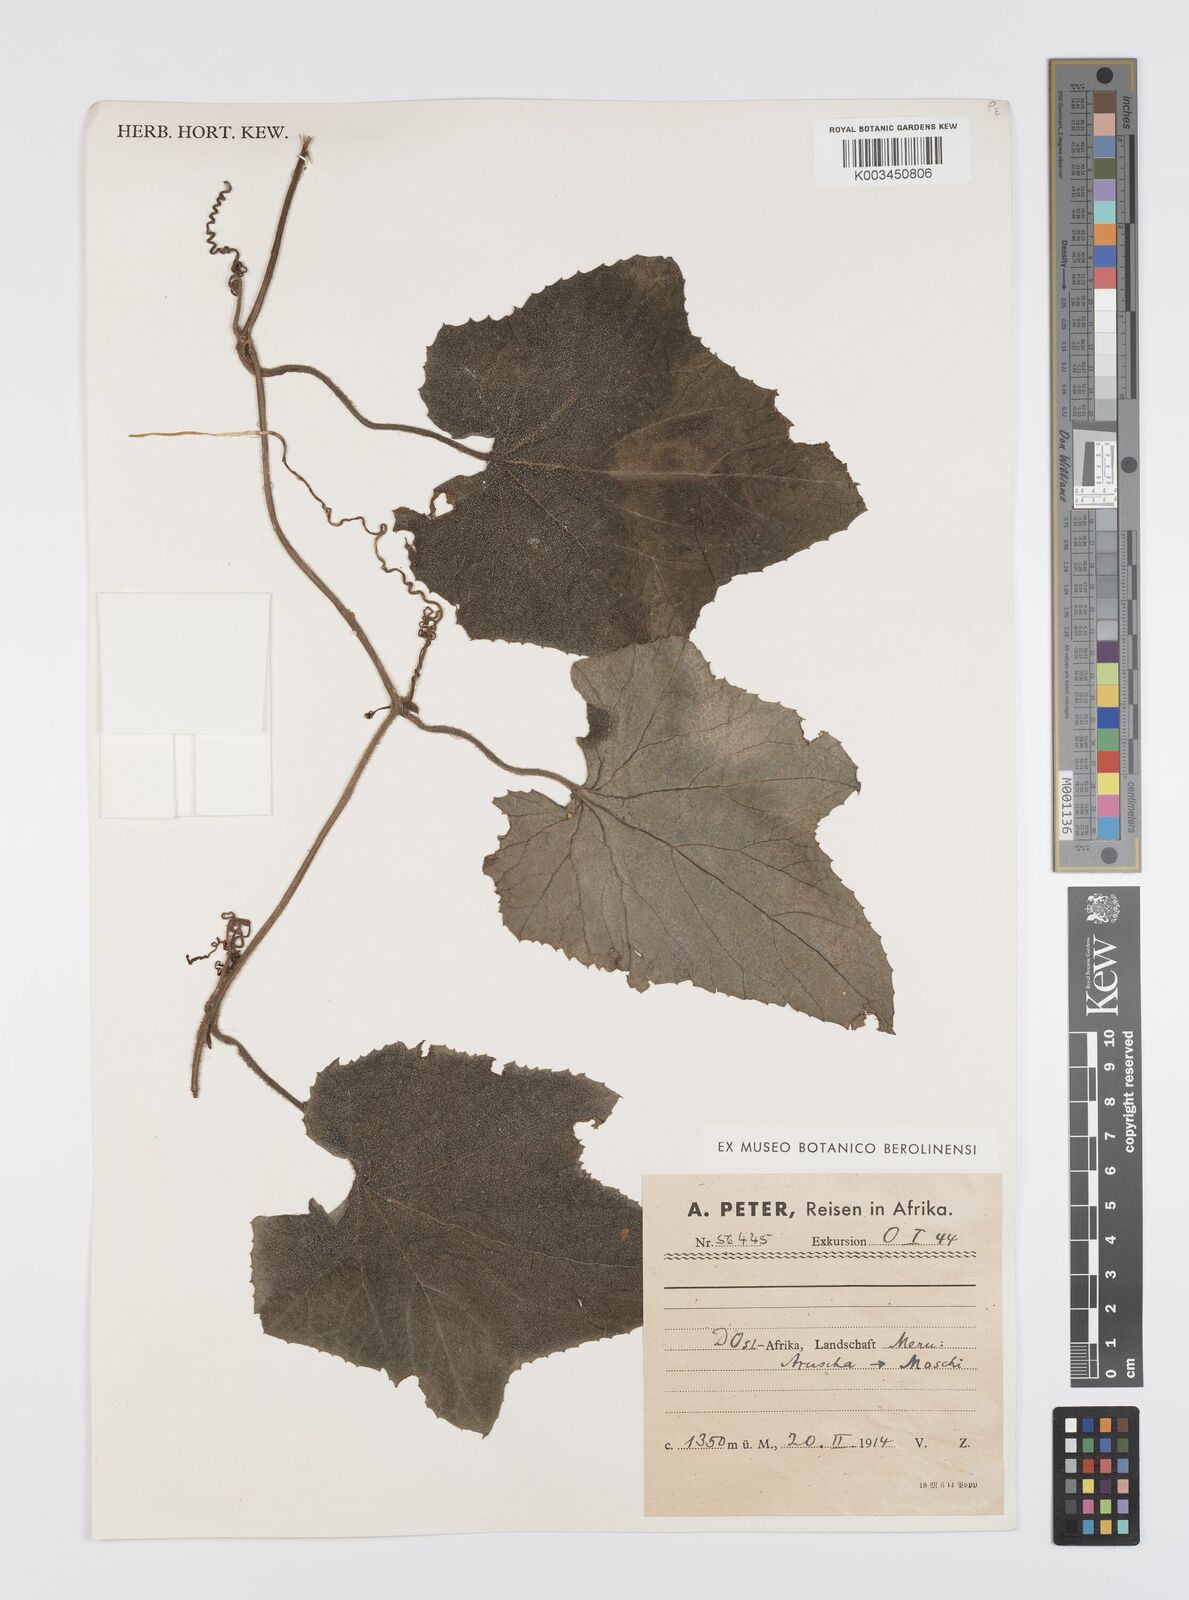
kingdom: Plantae
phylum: Tracheophyta
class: Magnoliopsida
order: Cucurbitales
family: Cucurbitaceae
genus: Lagenaria
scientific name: Lagenaria abyssinica
